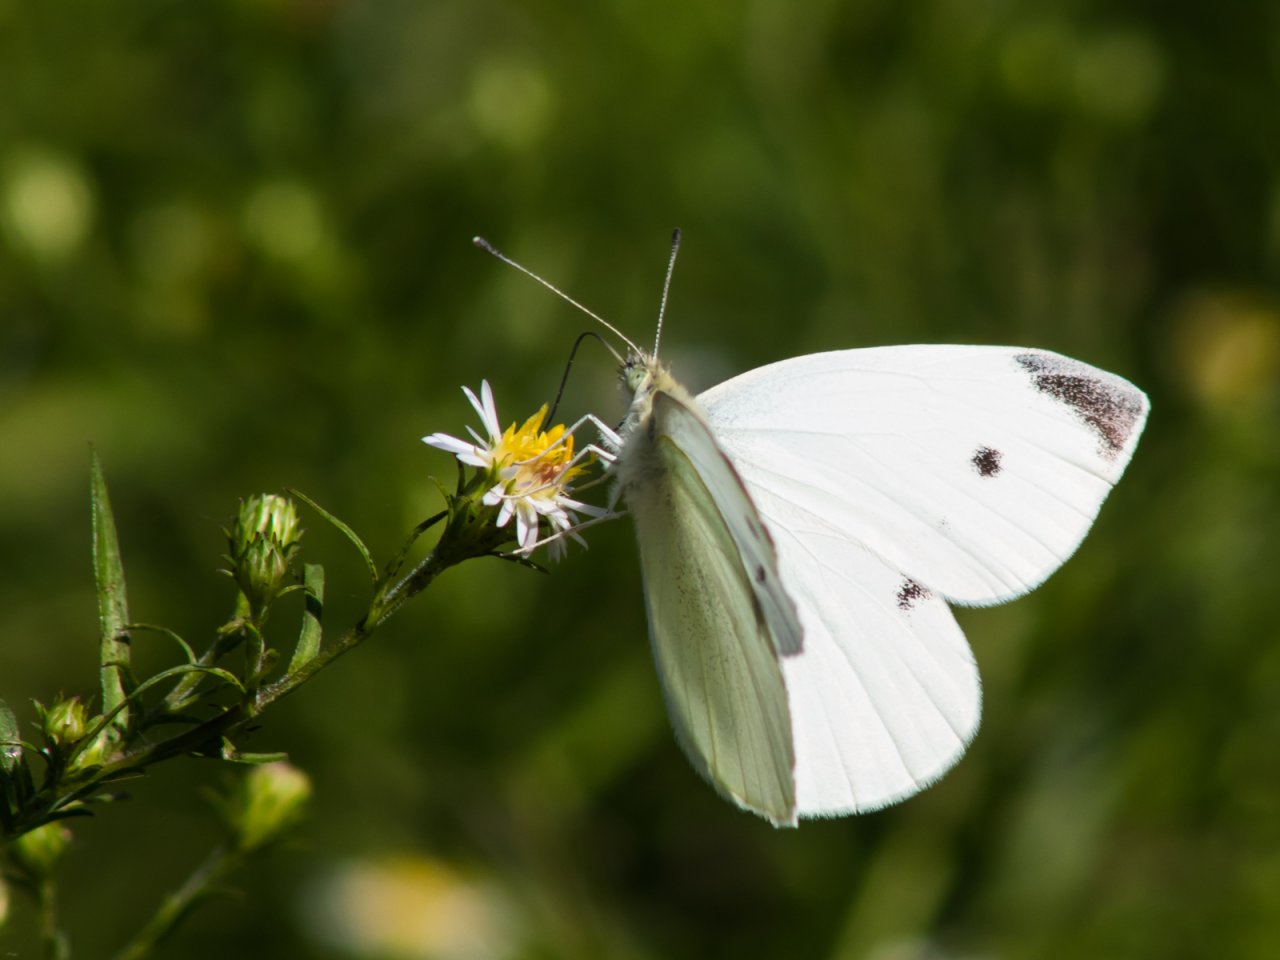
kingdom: Animalia
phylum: Arthropoda
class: Insecta
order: Lepidoptera
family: Pieridae
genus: Pieris
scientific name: Pieris rapae
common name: Cabbage White
